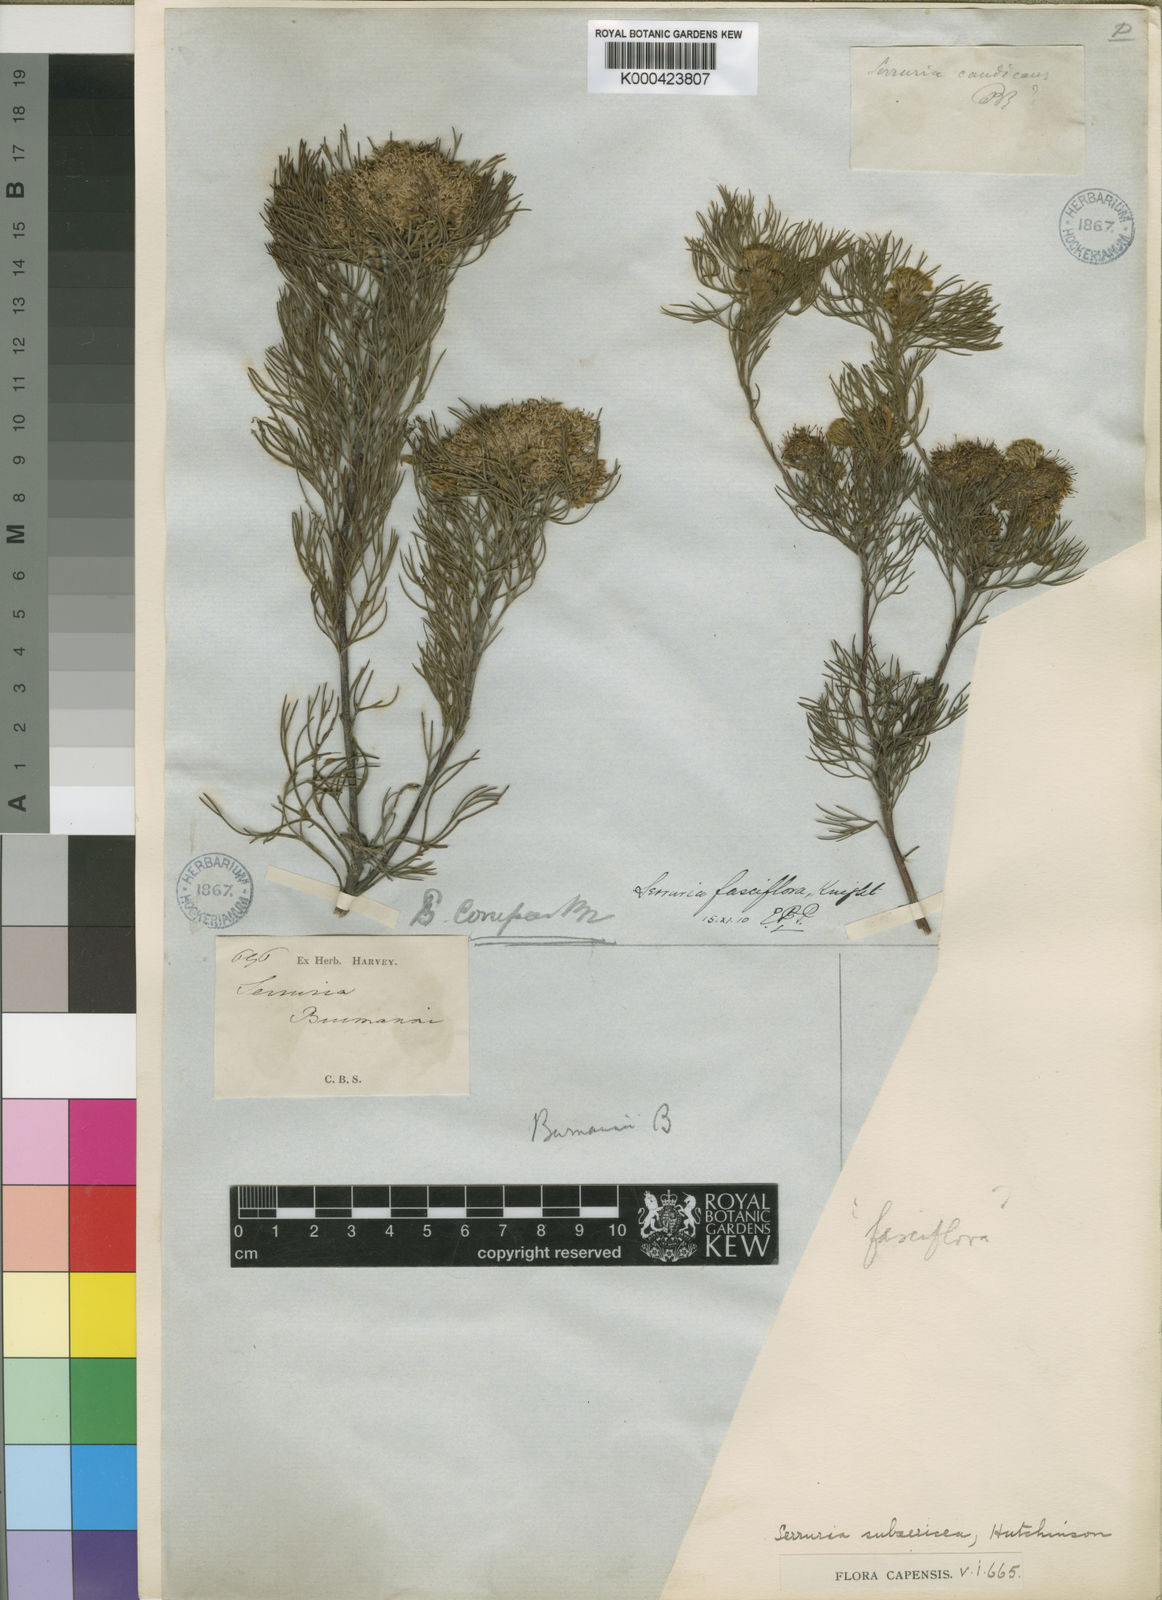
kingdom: Plantae
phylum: Tracheophyta
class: Magnoliopsida
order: Proteales
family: Proteaceae
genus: Serruria
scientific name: Serruria fasciflora
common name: Common pin spiderhead
